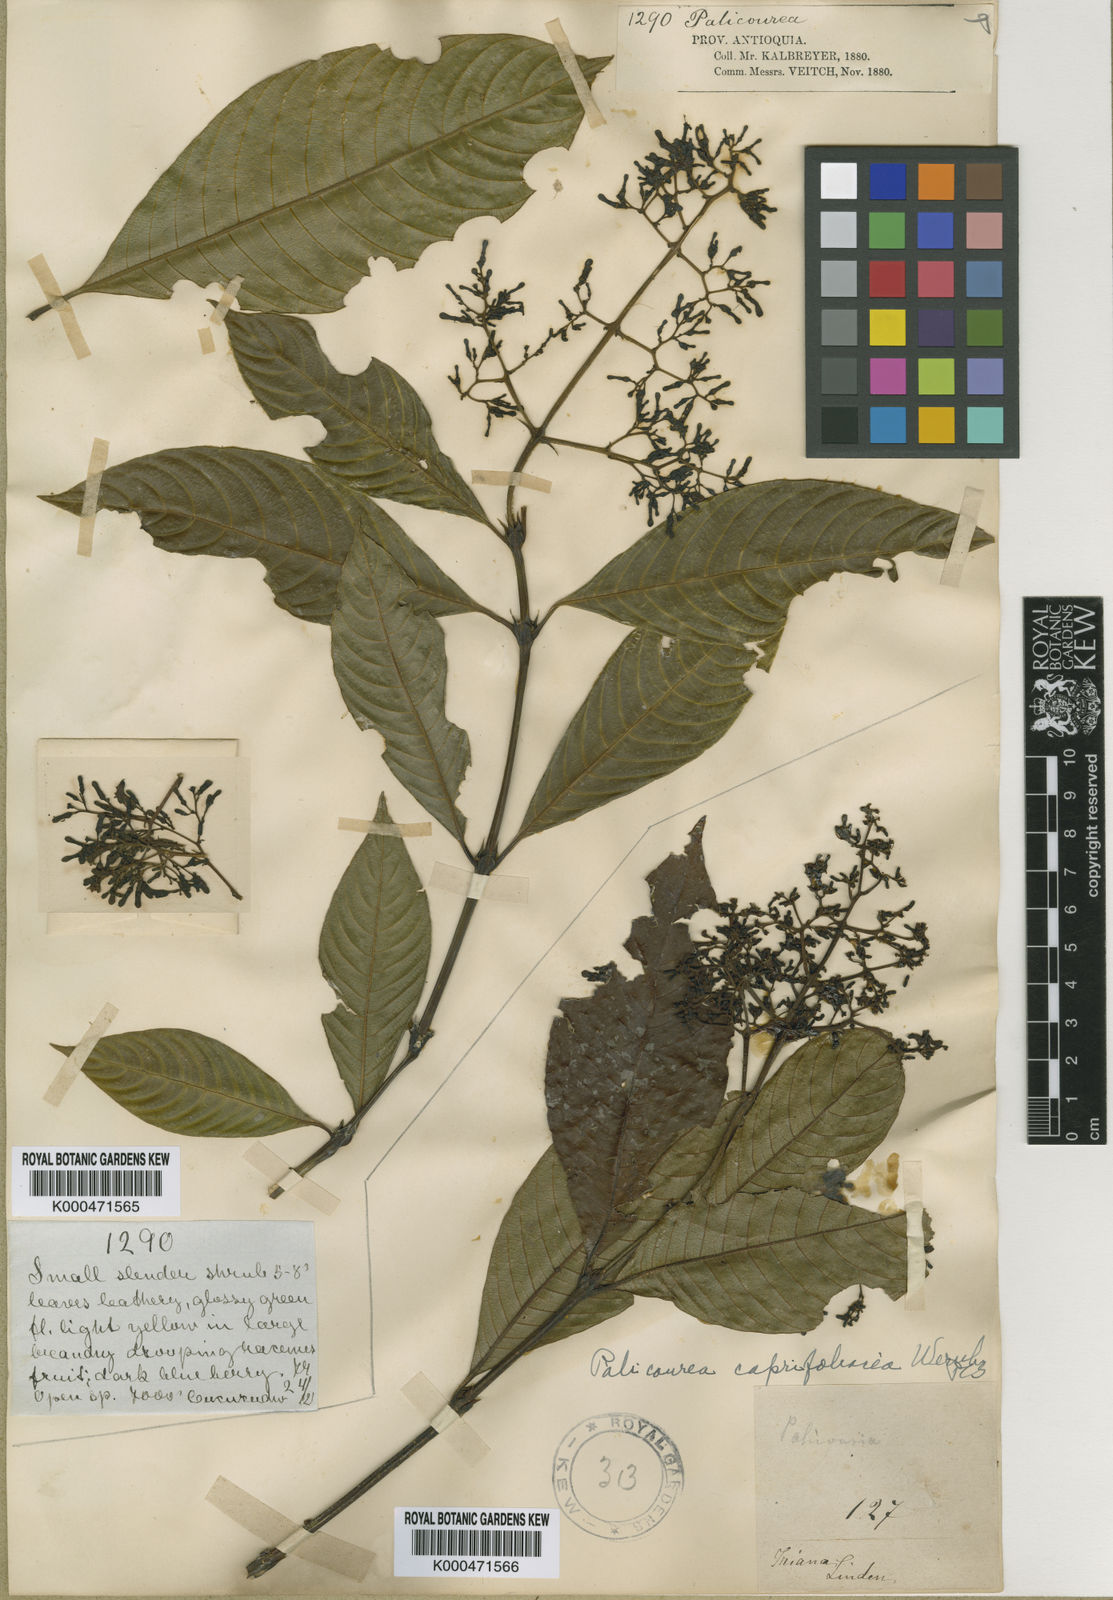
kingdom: Plantae
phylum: Tracheophyta
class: Magnoliopsida
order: Gentianales
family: Rubiaceae
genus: Palicourea
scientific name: Palicourea lyristipula
